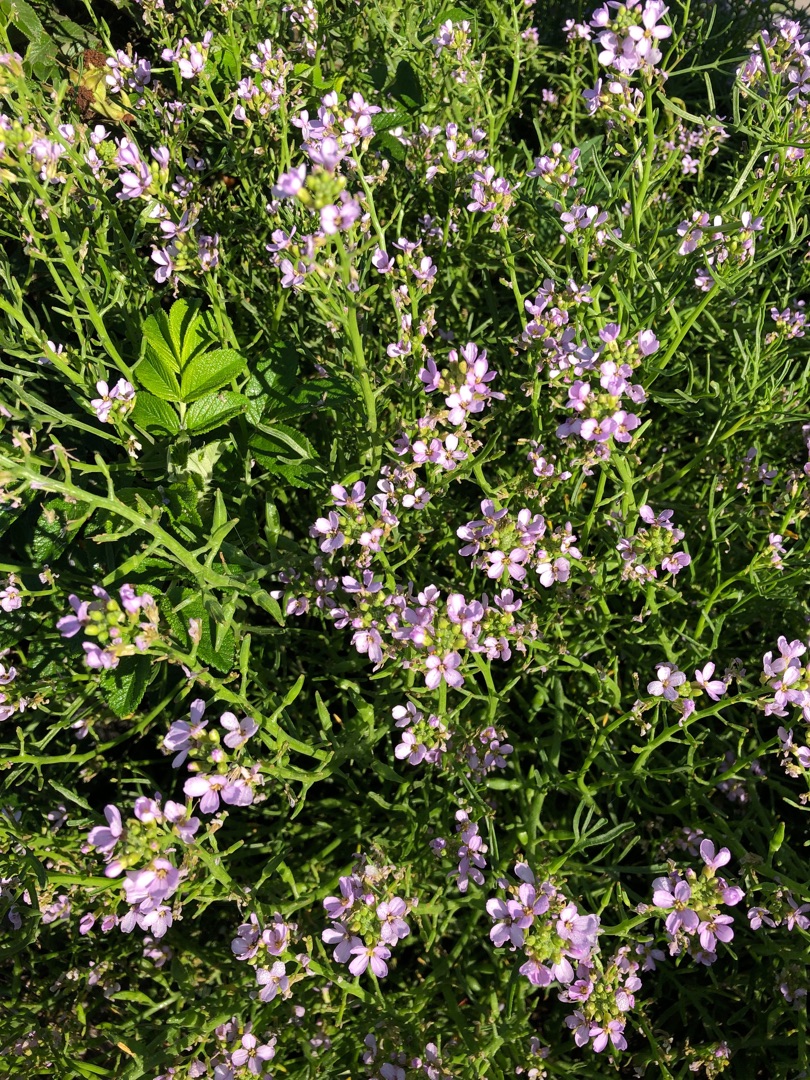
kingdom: Plantae
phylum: Tracheophyta
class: Magnoliopsida
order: Brassicales
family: Brassicaceae
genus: Cakile
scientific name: Cakile maritima
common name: Strandsennep
